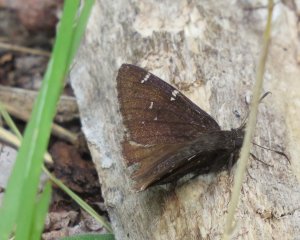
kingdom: Animalia
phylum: Arthropoda
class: Insecta
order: Lepidoptera
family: Hesperiidae
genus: Autochton
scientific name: Autochton
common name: Northern Cloudywing
